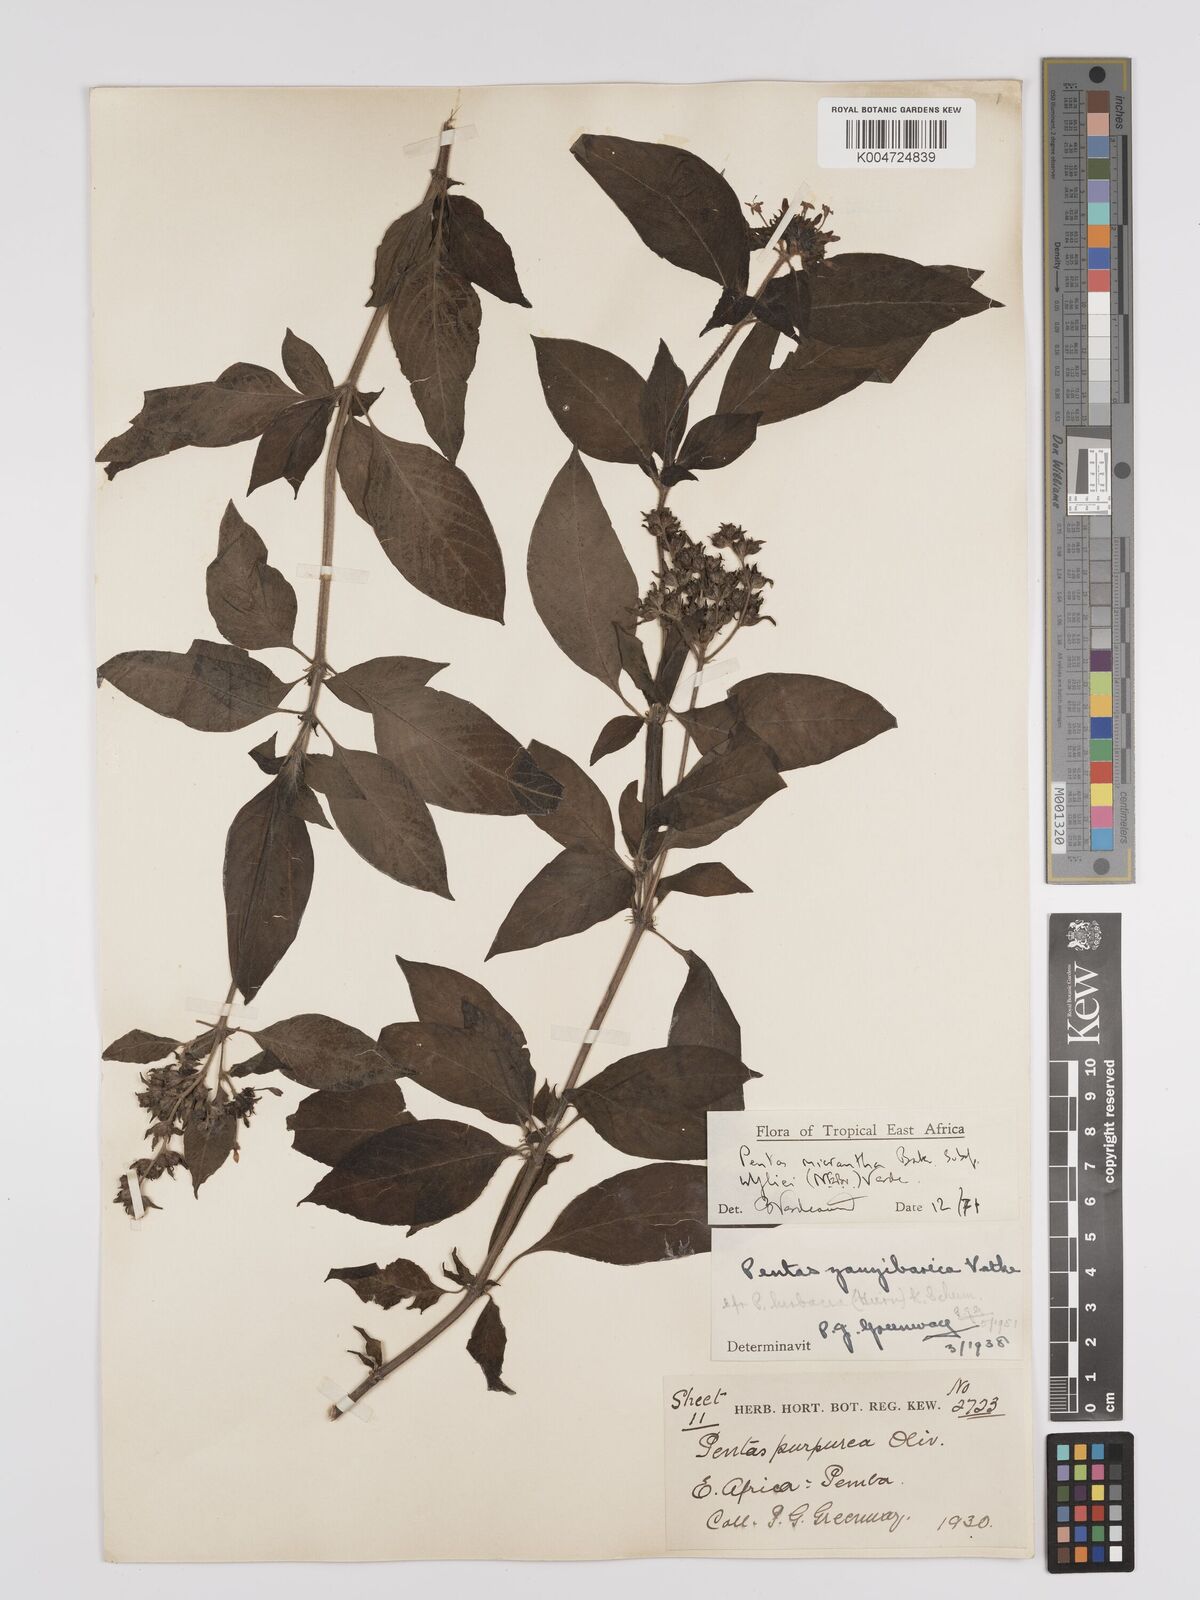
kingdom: Plantae
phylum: Tracheophyta
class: Magnoliopsida
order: Gentianales
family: Rubiaceae
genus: Pentas
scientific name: Pentas micrantha
